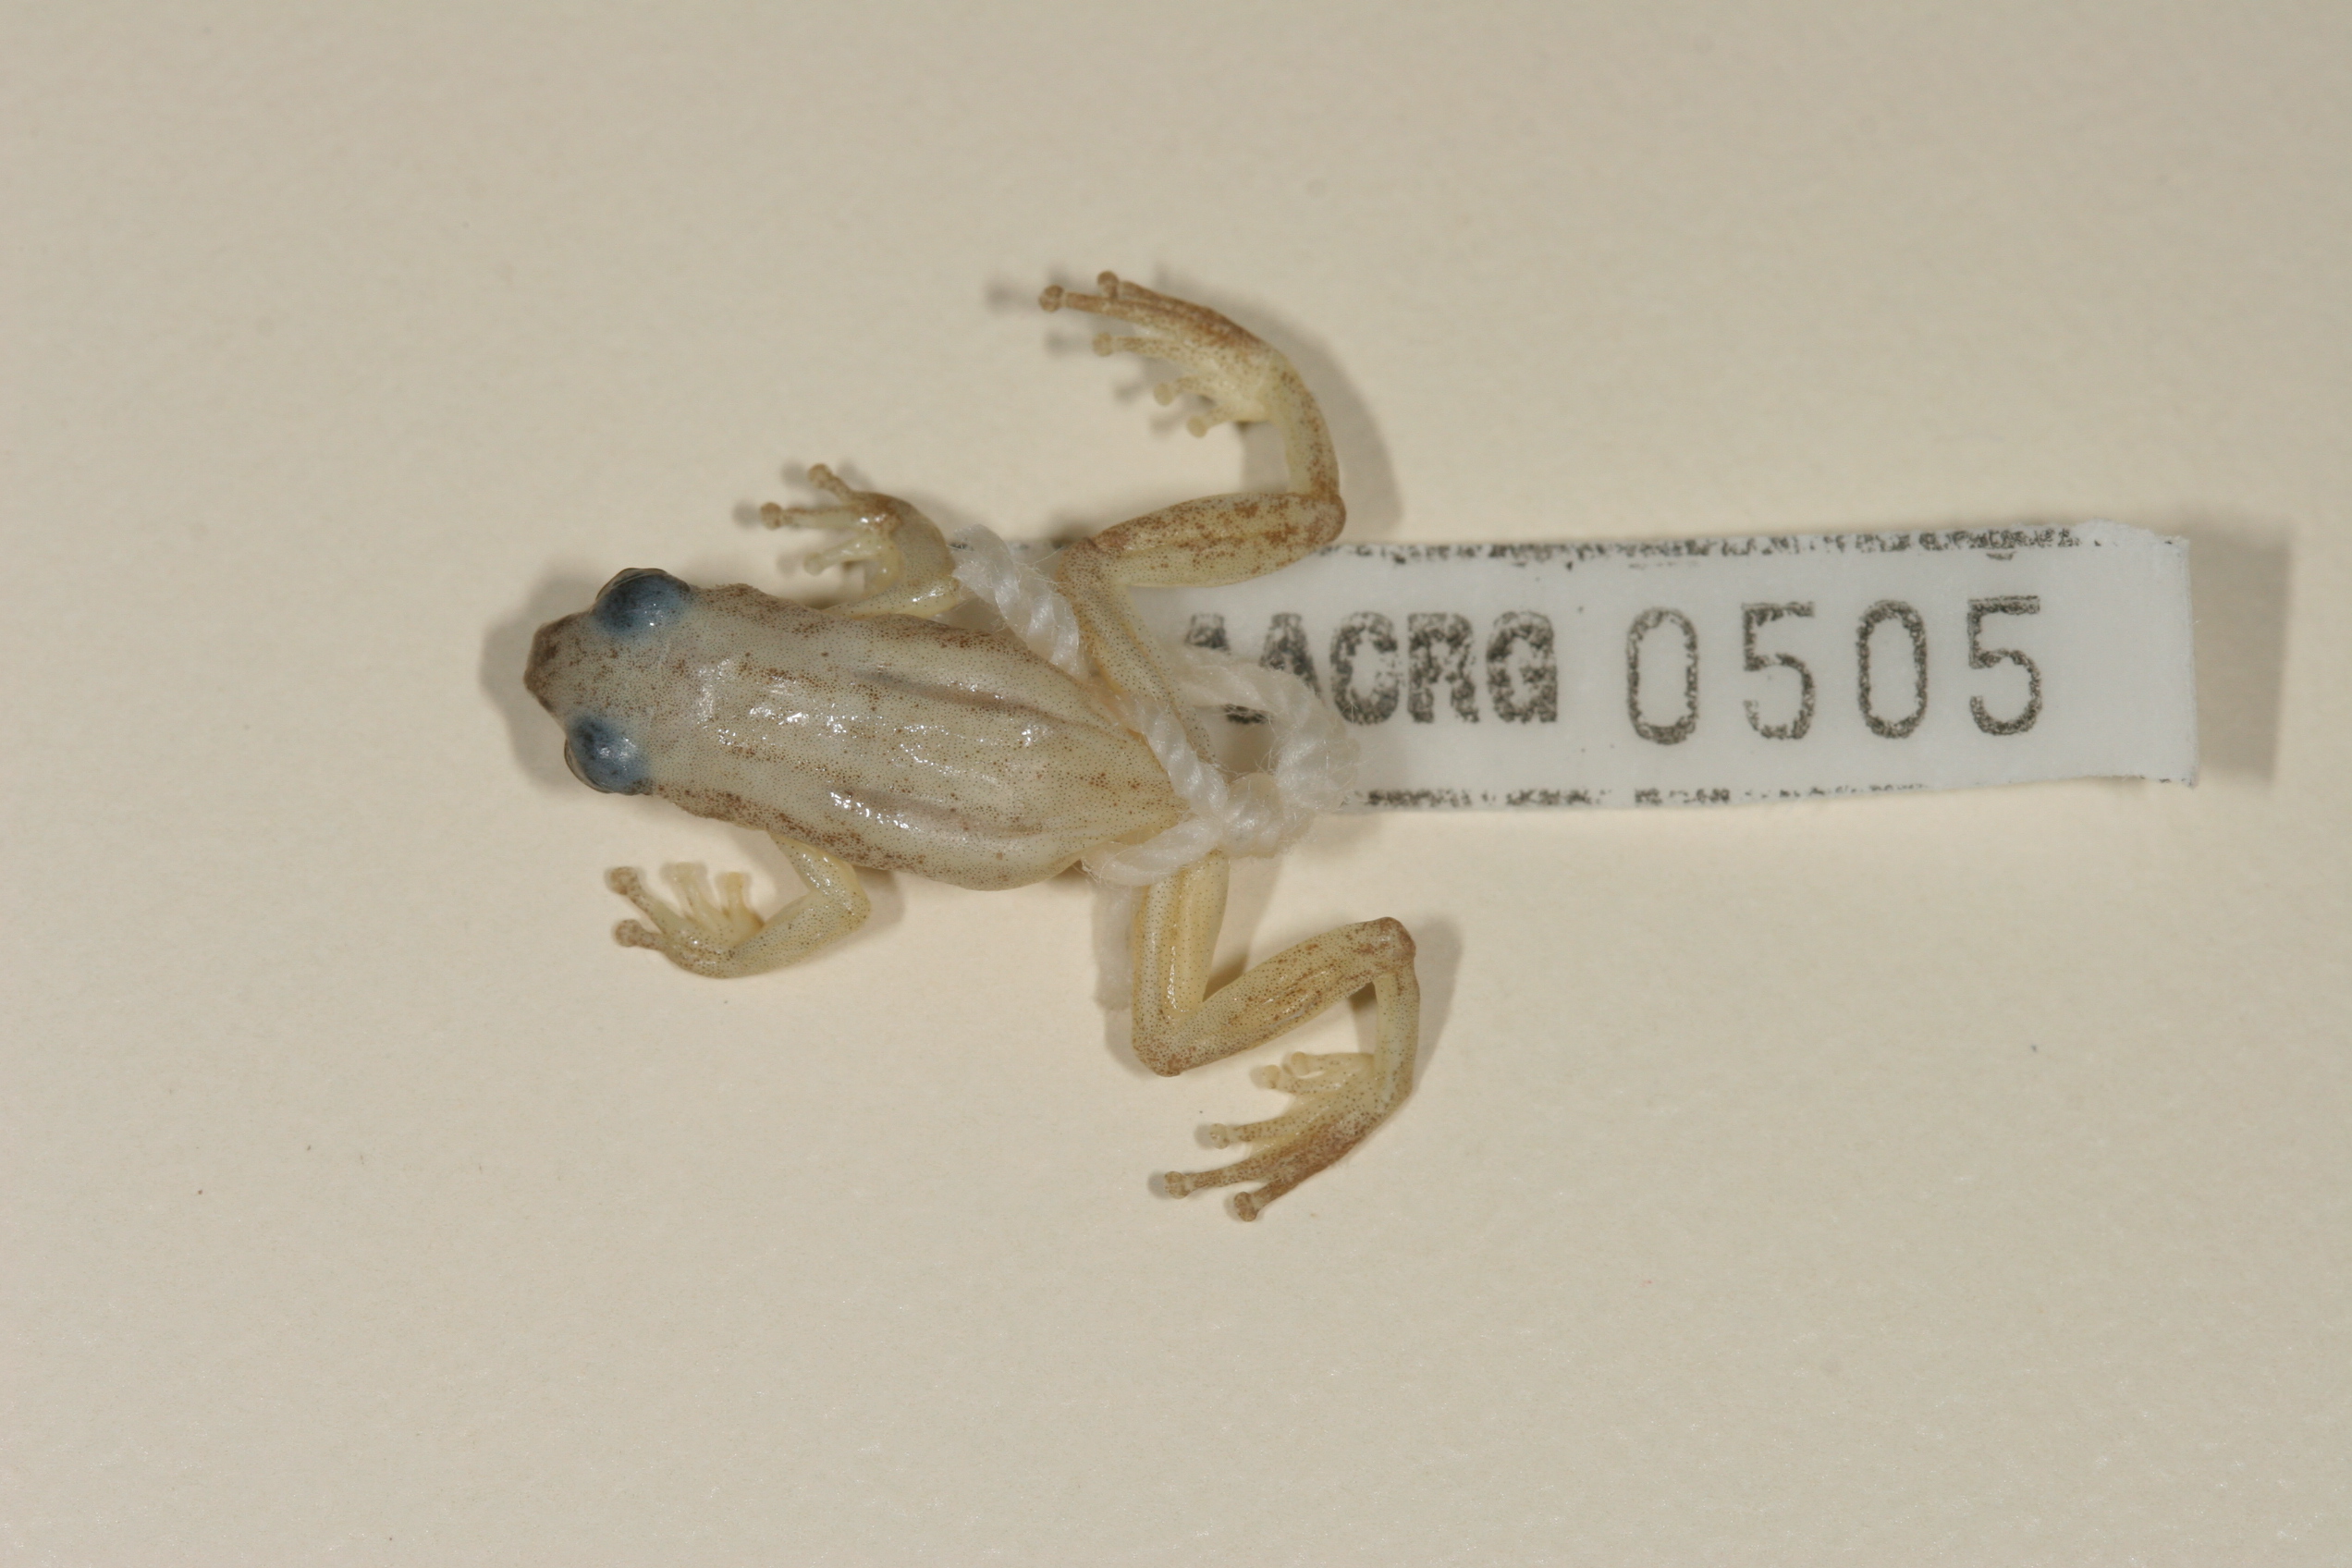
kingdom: Animalia
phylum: Chordata
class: Amphibia
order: Anura
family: Hyperoliidae
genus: Afrixalus
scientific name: Afrixalus delicatus
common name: Delicate leaf-folding frog
